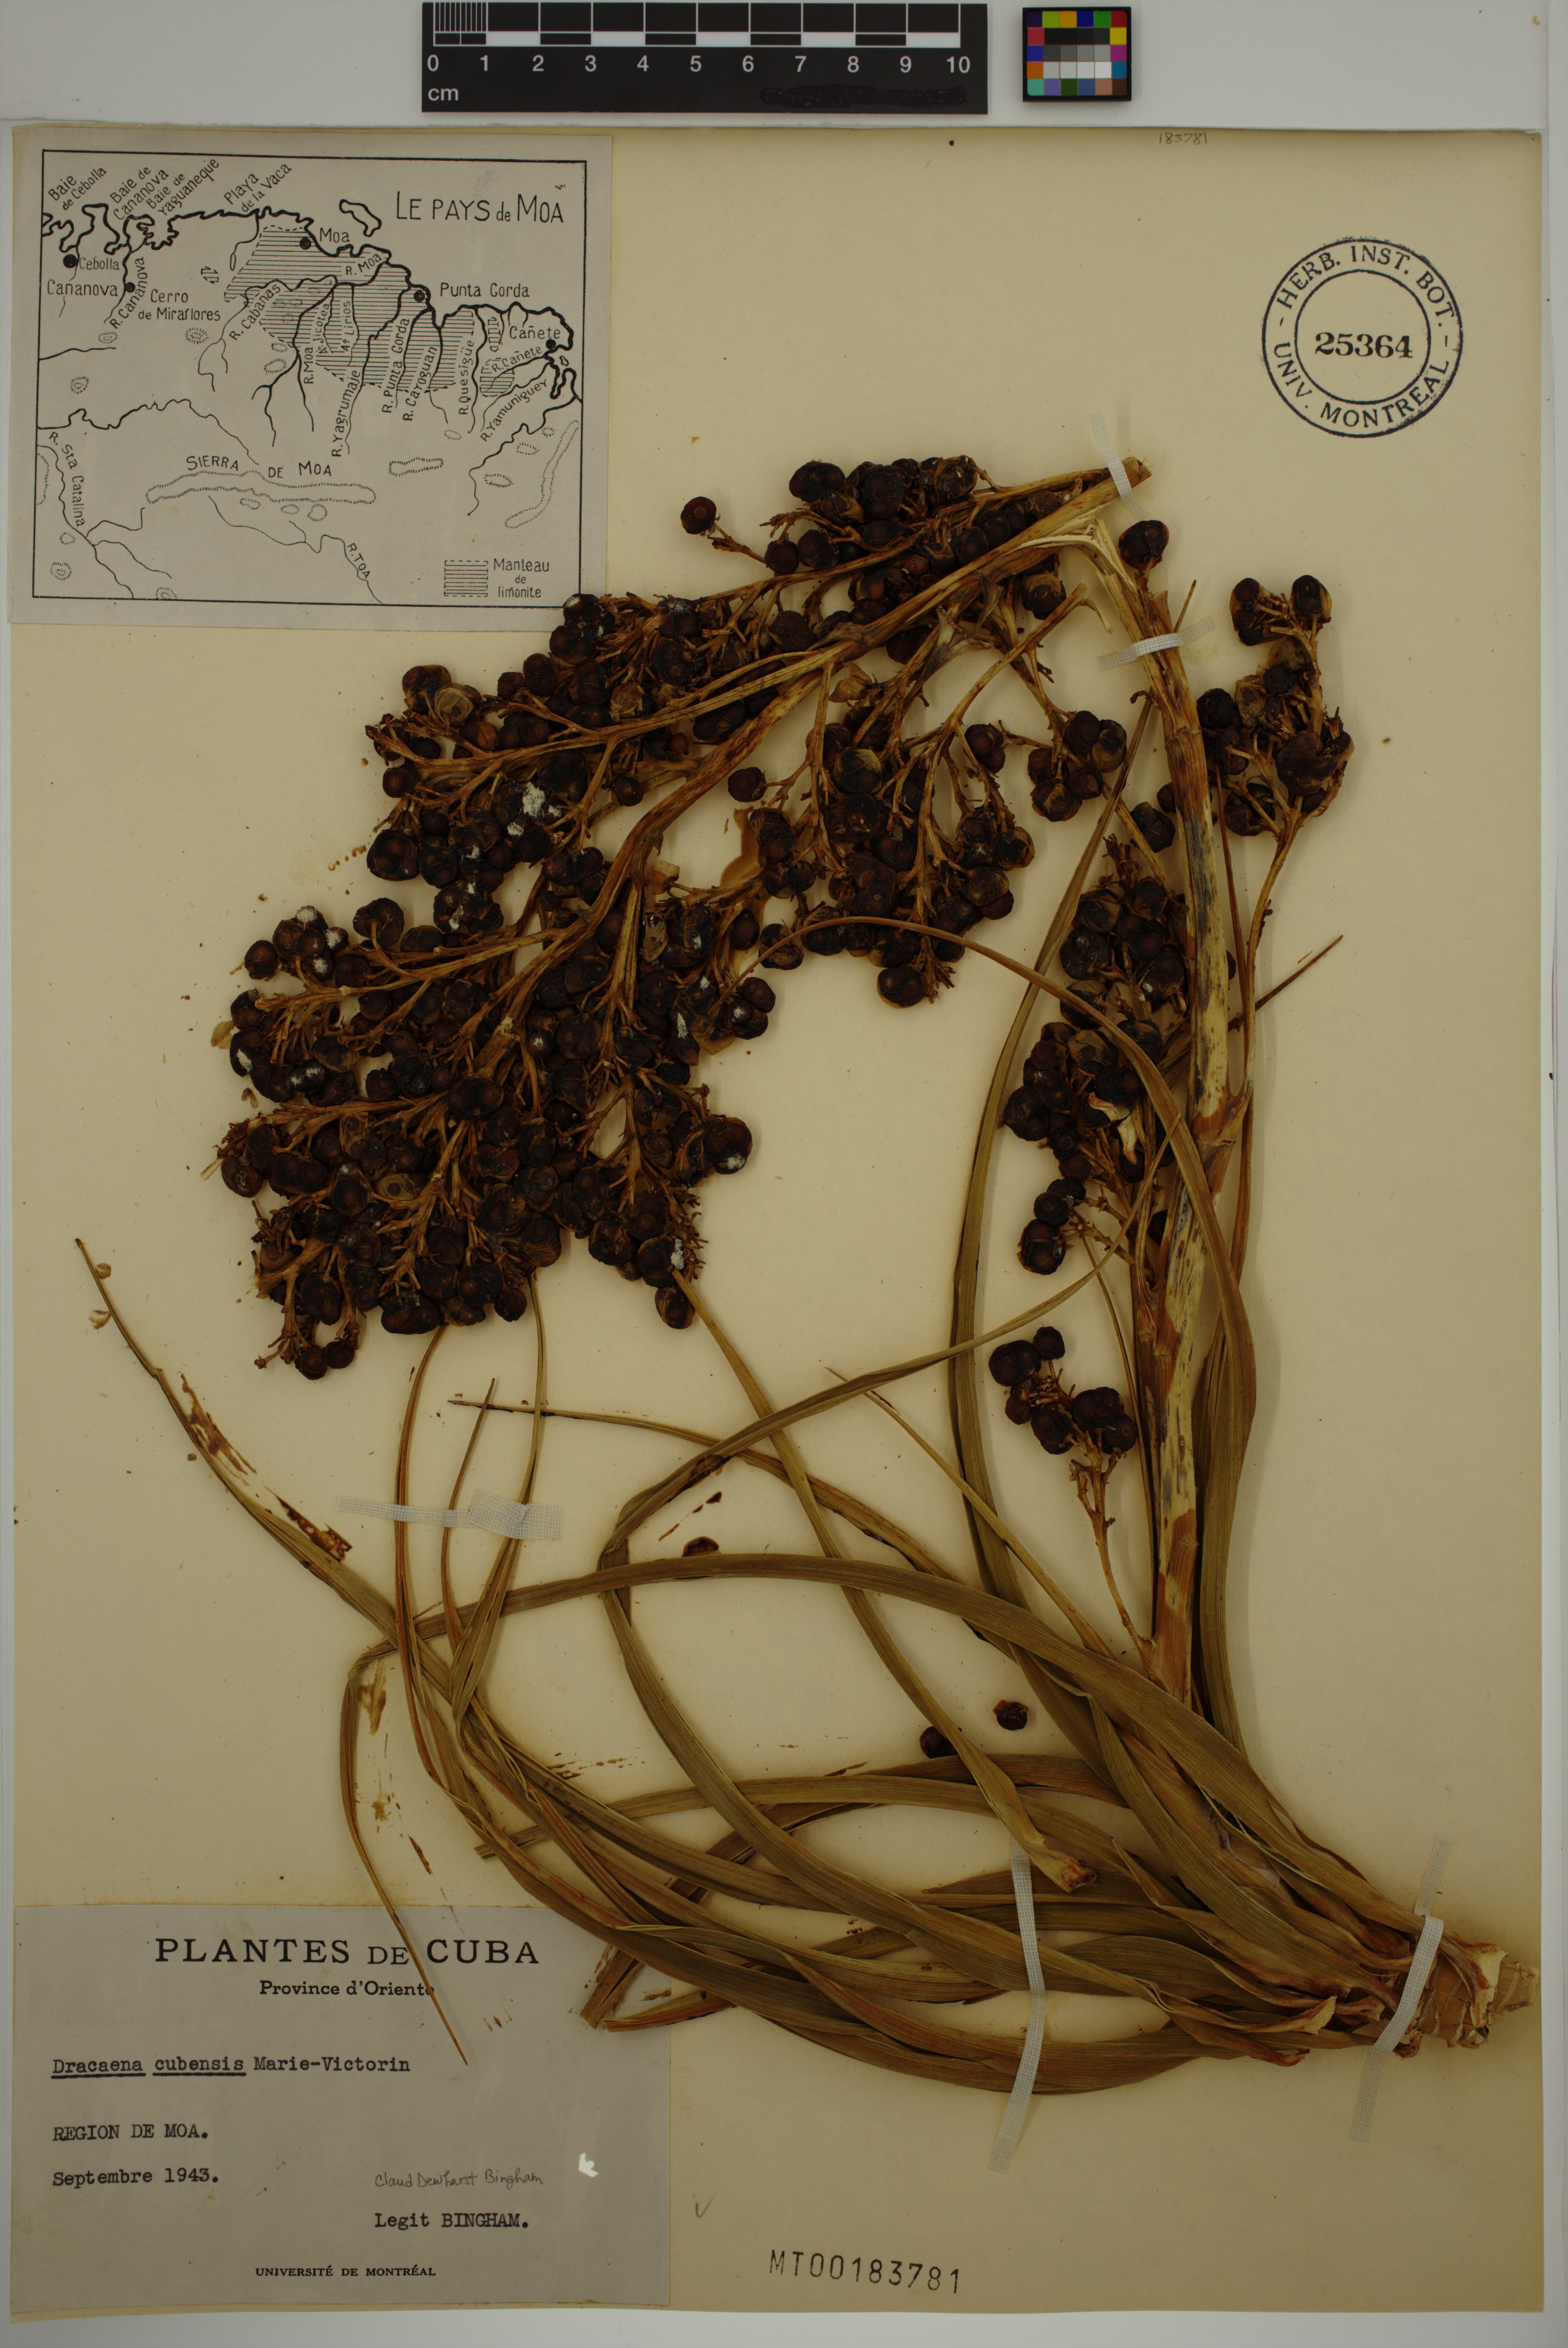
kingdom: Plantae
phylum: Tracheophyta
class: Liliopsida
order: Asparagales
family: Asparagaceae
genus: Dracaena
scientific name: Dracaena cubensis
